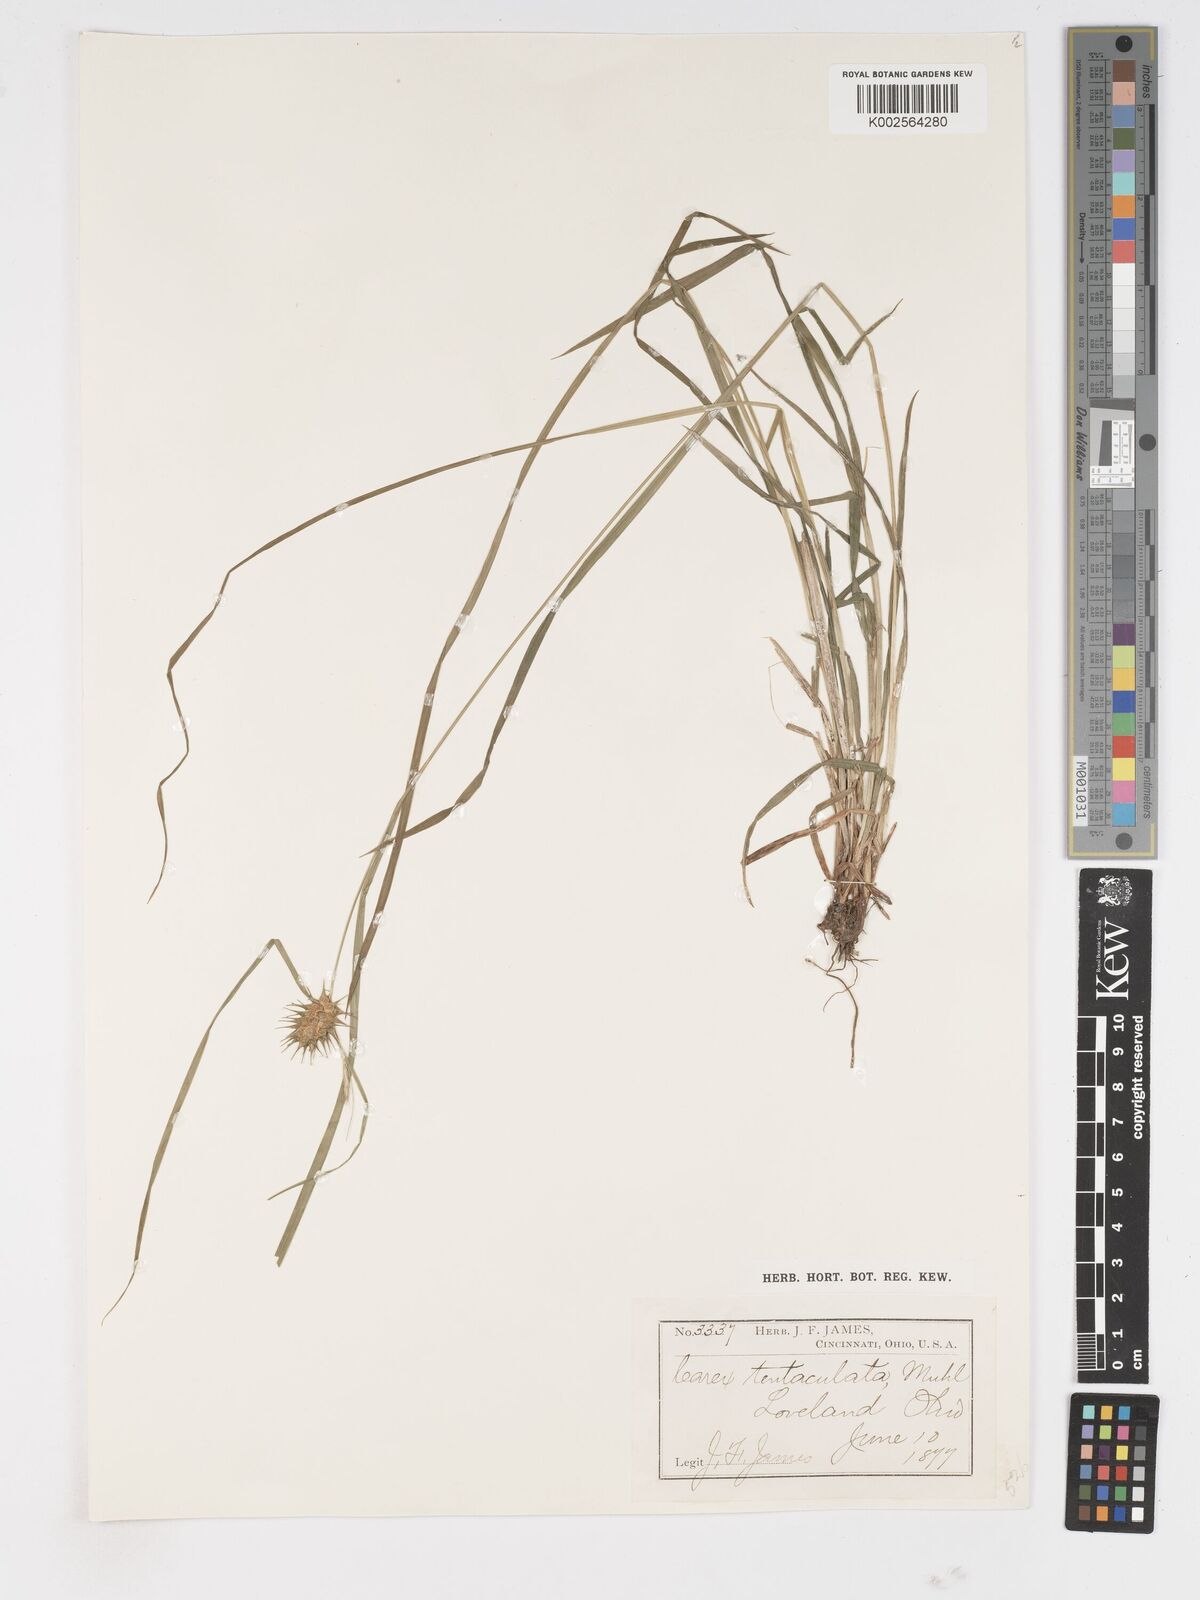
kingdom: Plantae
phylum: Tracheophyta
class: Liliopsida
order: Poales
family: Cyperaceae
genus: Carex
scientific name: Carex lurida
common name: Sallow sedge
